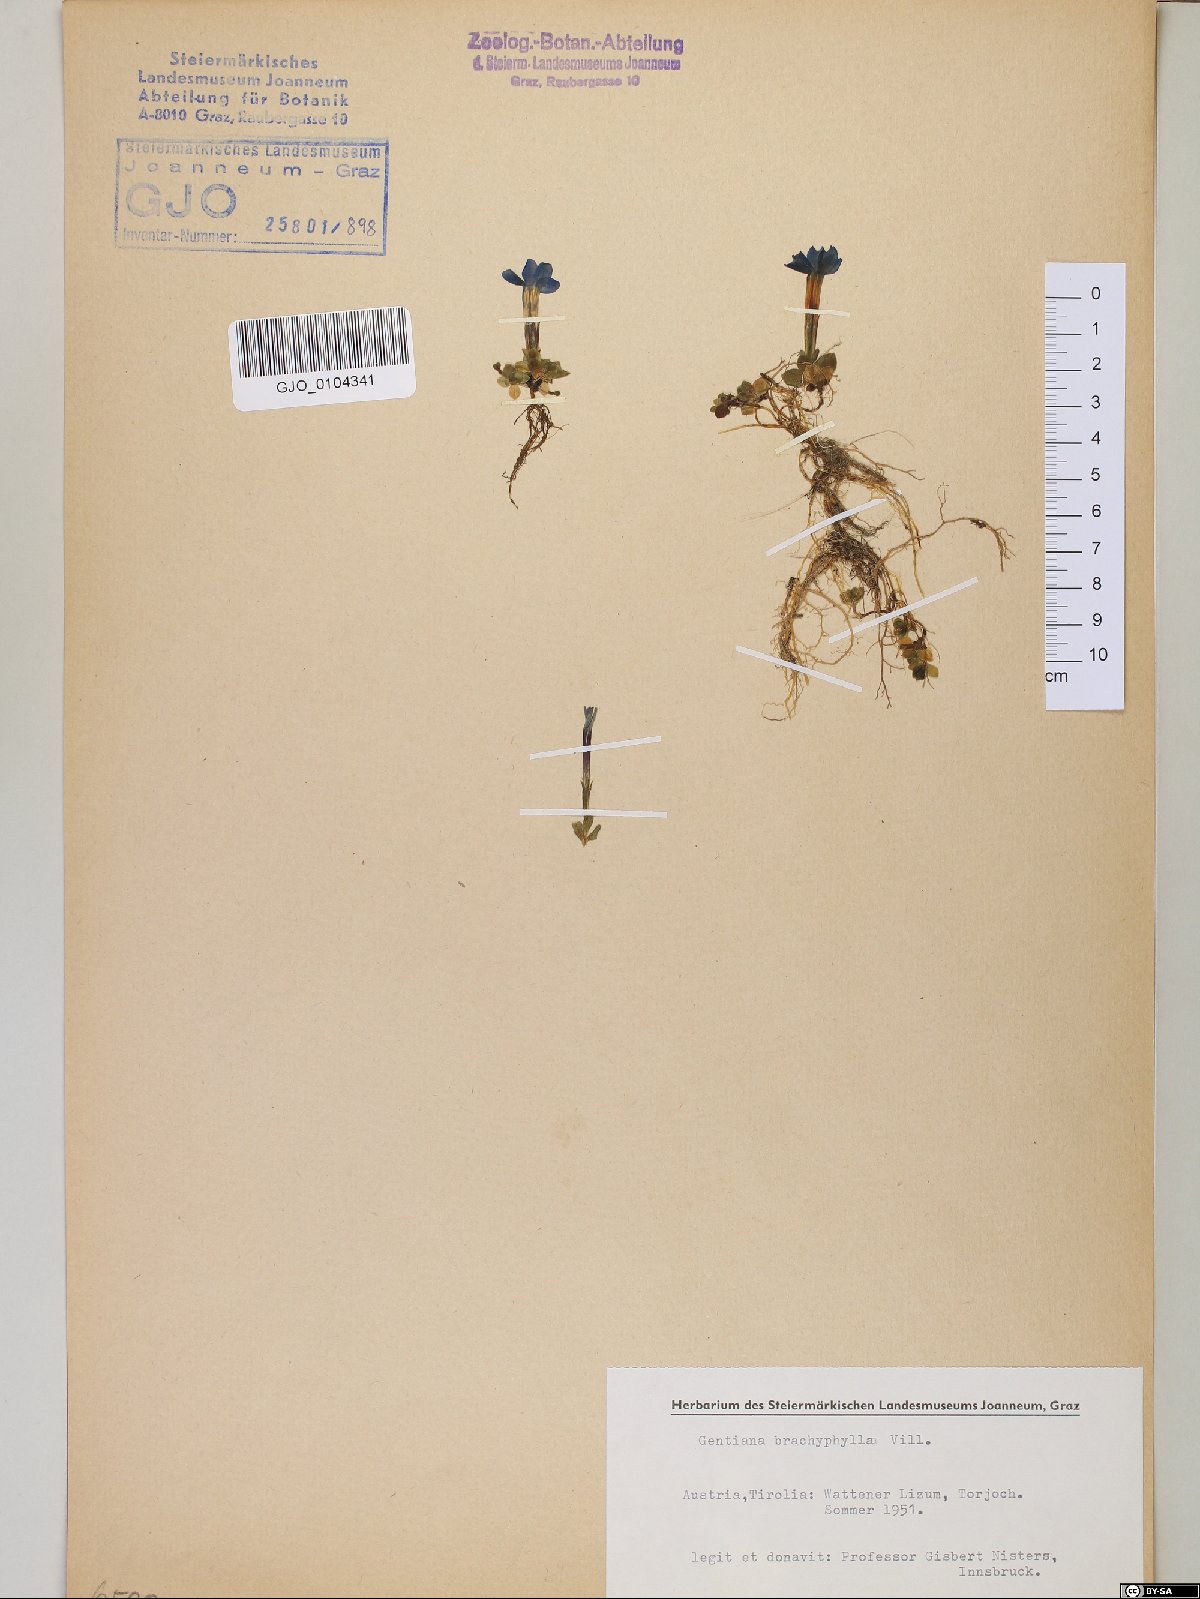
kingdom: Plantae
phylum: Tracheophyta
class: Magnoliopsida
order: Gentianales
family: Gentianaceae
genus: Gentiana
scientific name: Gentiana brachyphylla
